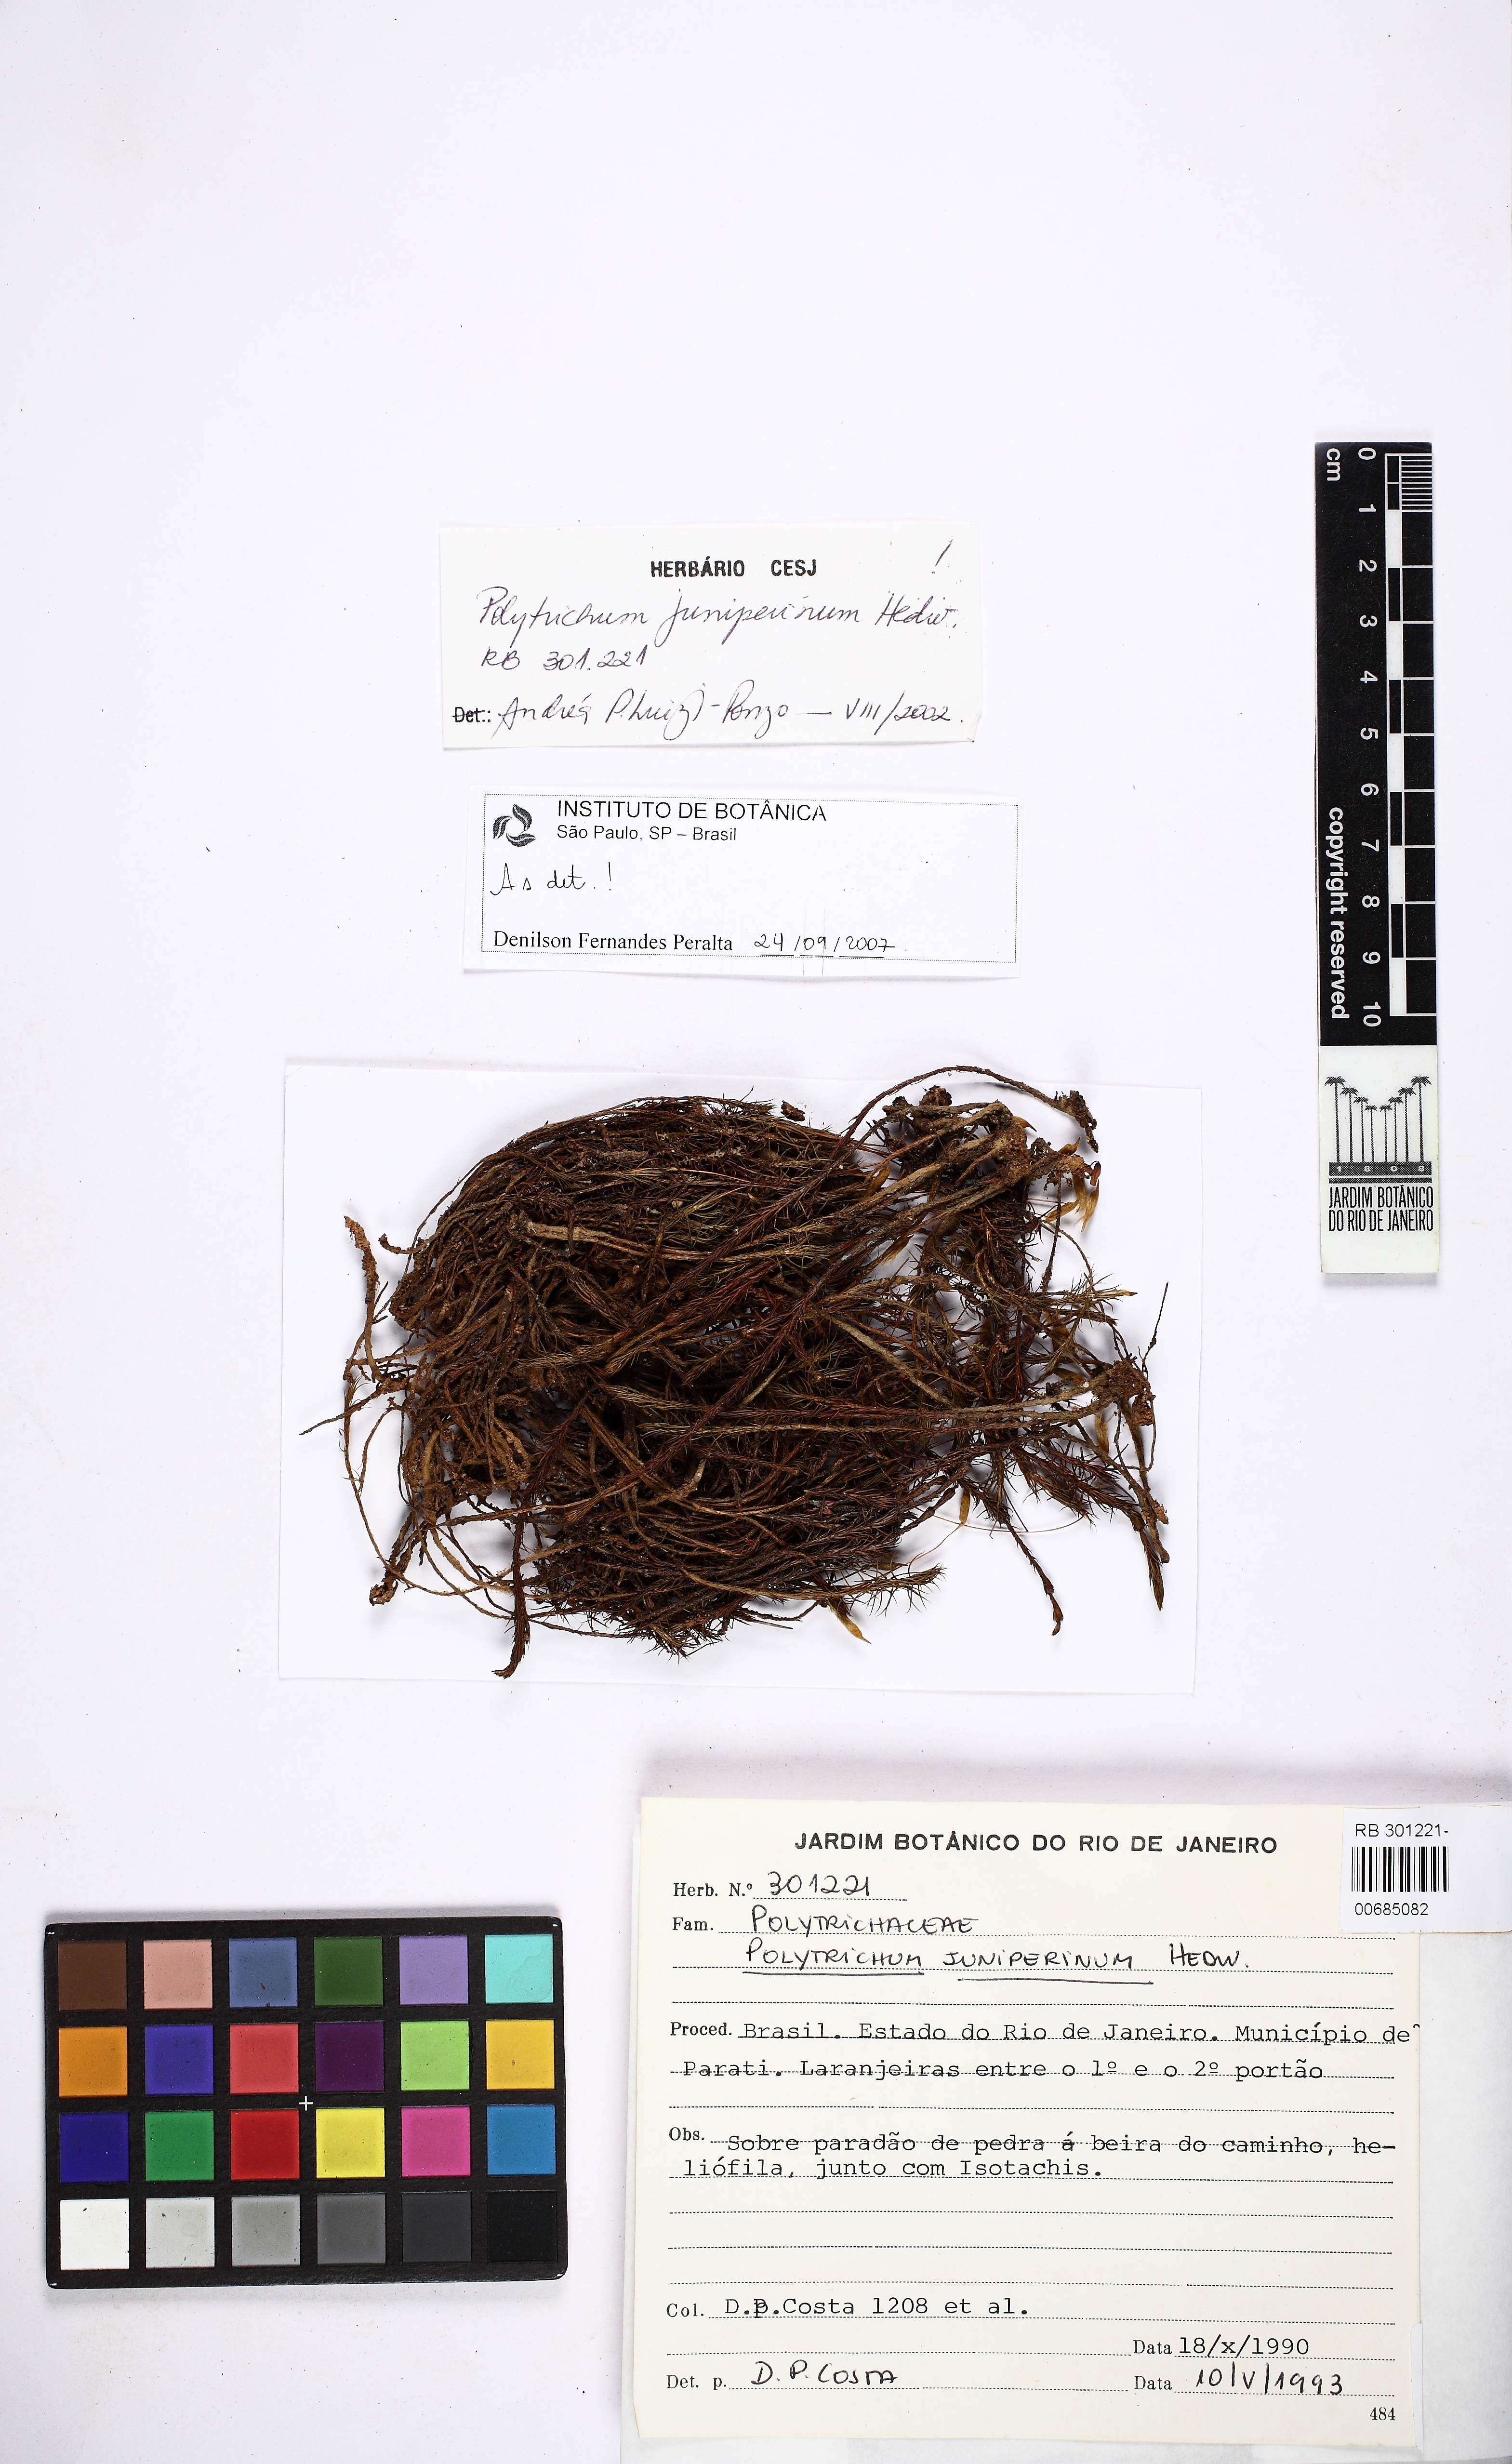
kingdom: Plantae
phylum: Bryophyta
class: Polytrichopsida
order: Polytrichales
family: Polytrichaceae
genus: Polytrichum
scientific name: Polytrichum juniperinum
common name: Juniper haircap moss
